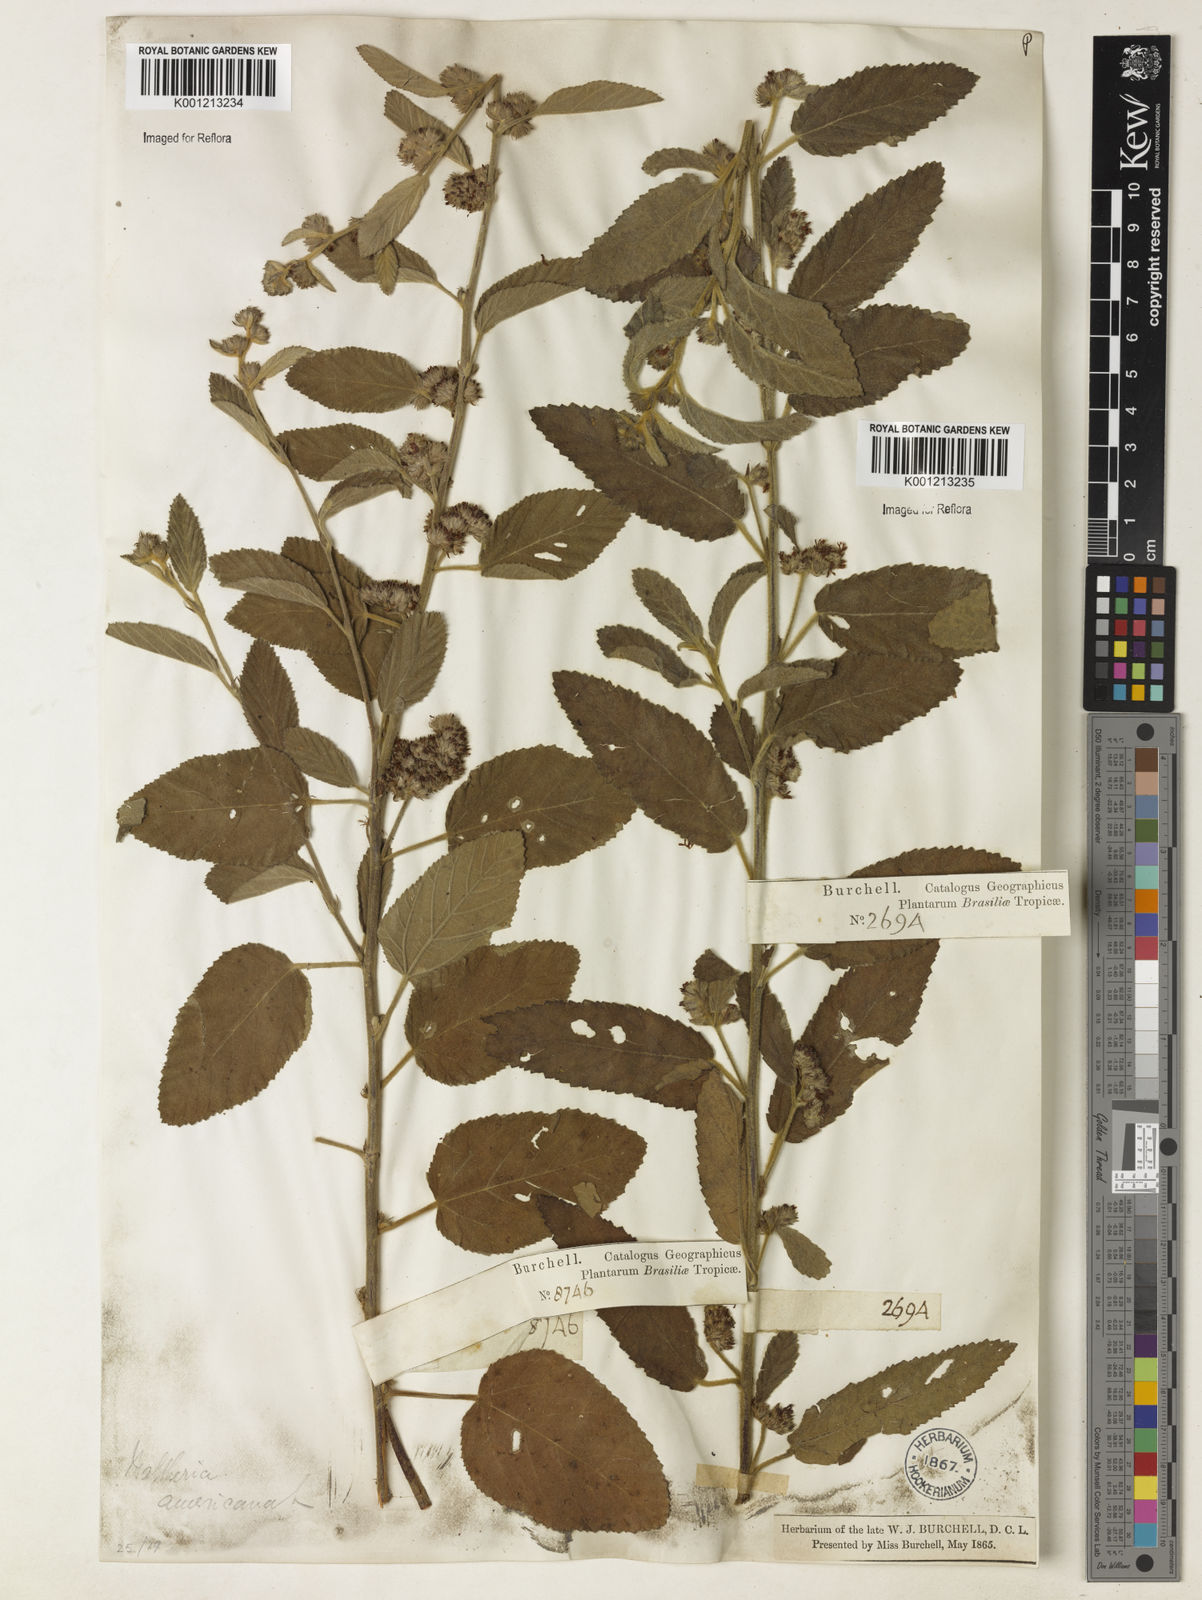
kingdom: Plantae
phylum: Tracheophyta
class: Magnoliopsida
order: Malvales
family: Malvaceae
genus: Waltheria
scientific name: Waltheria indica
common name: Leather-coat
